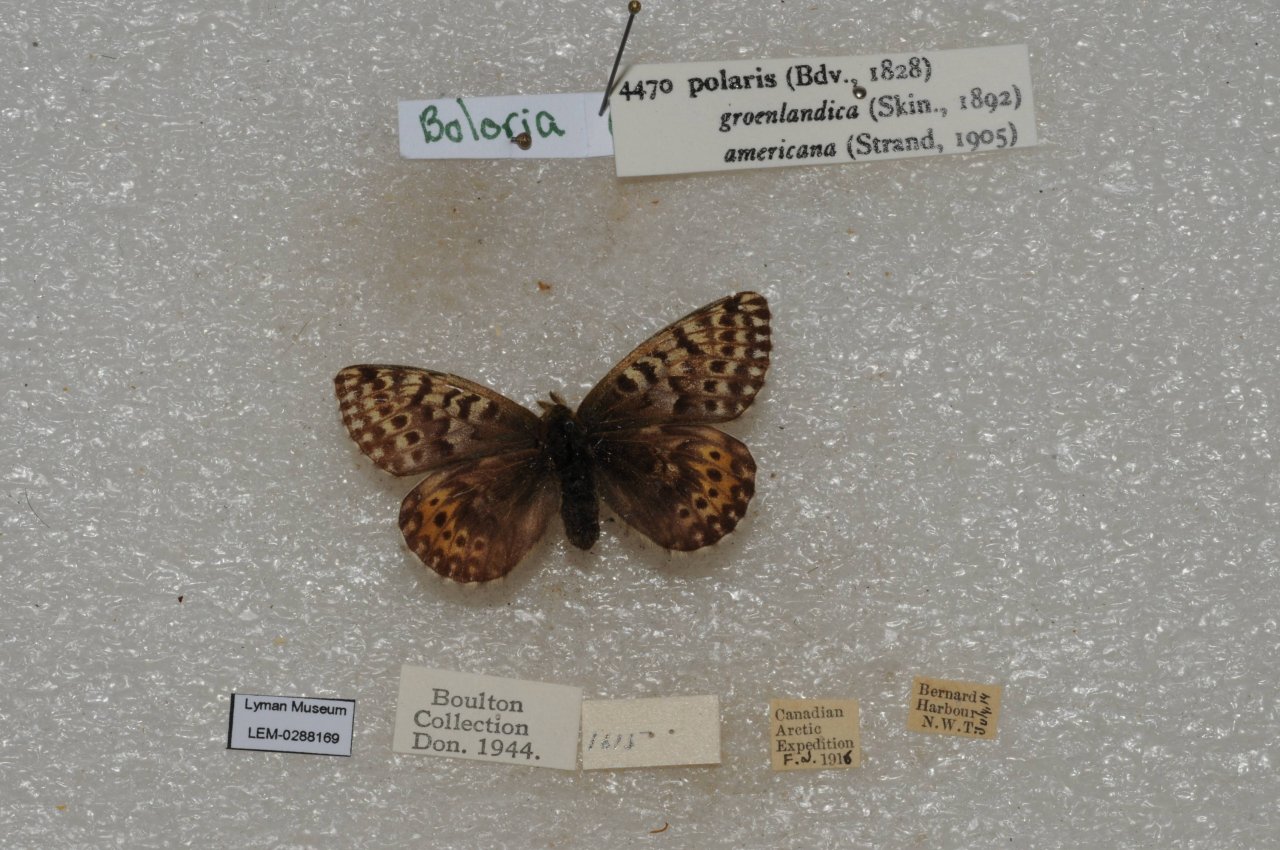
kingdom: Animalia
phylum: Arthropoda
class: Insecta
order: Lepidoptera
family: Nymphalidae
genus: Clossiana
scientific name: Clossiana polaris
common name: Polaris Fritillary
